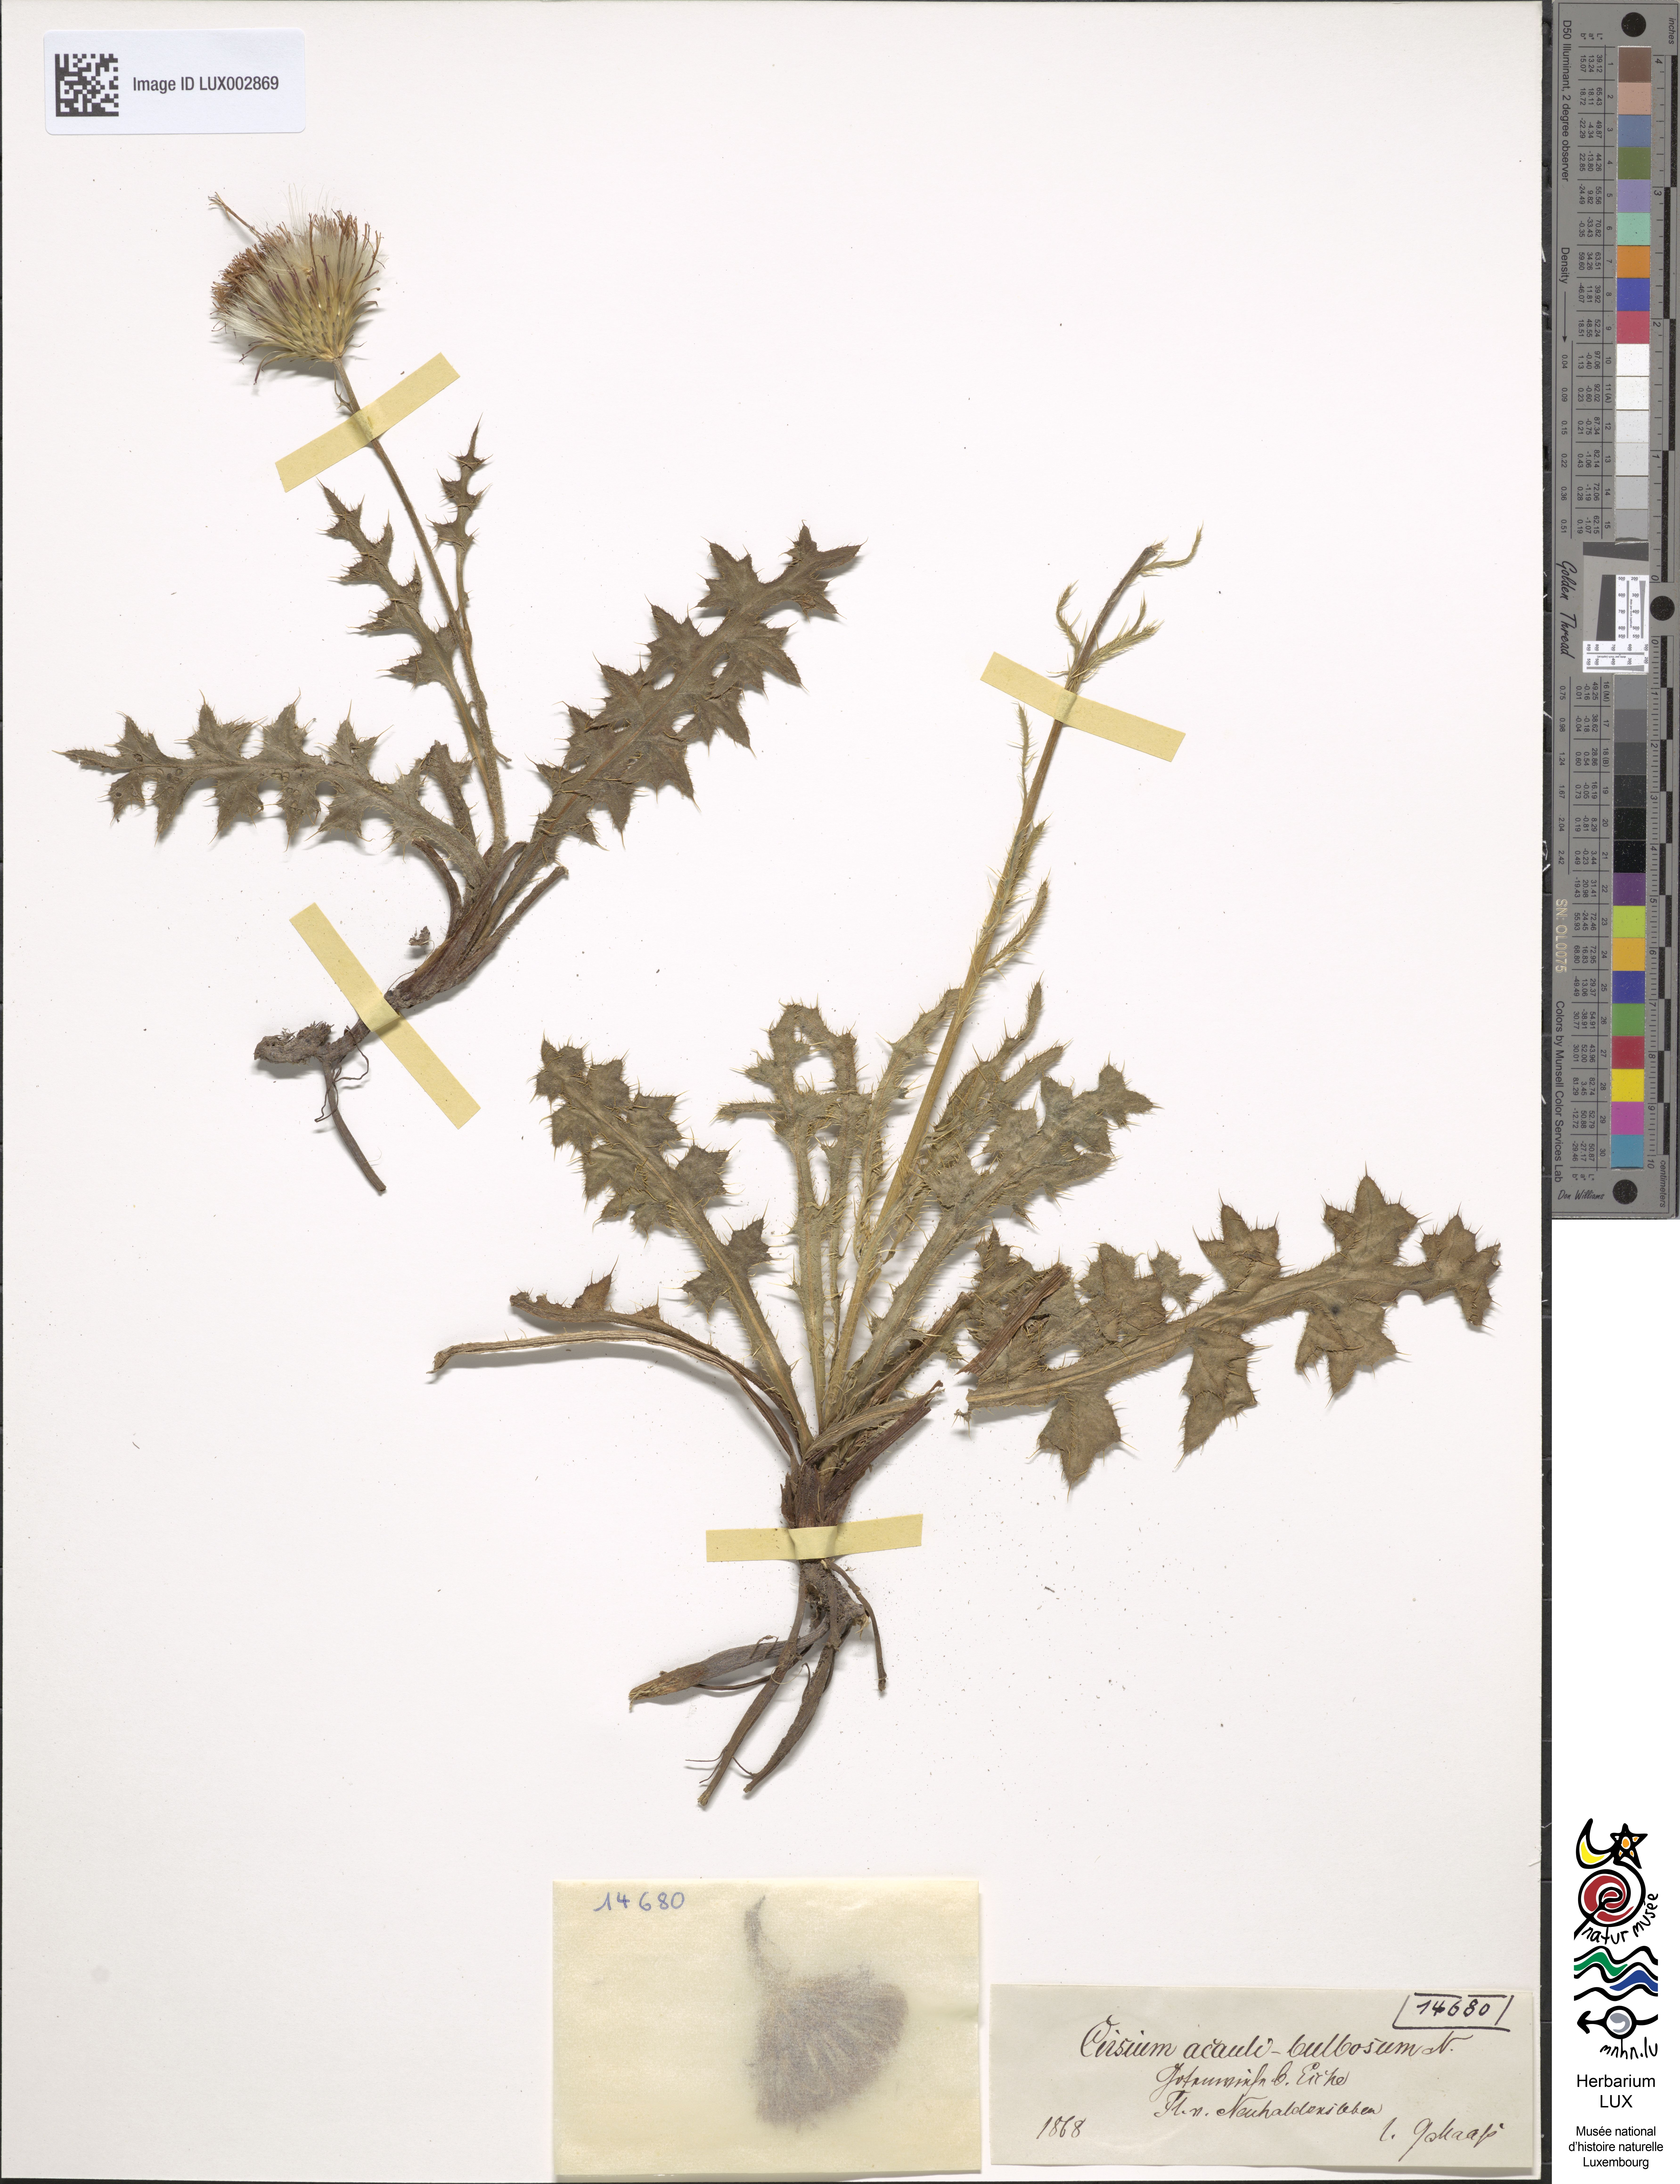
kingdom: Plantae
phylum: Tracheophyta
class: Magnoliopsida
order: Asterales
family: Asteraceae
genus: Cirsium
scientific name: Cirsium medium
